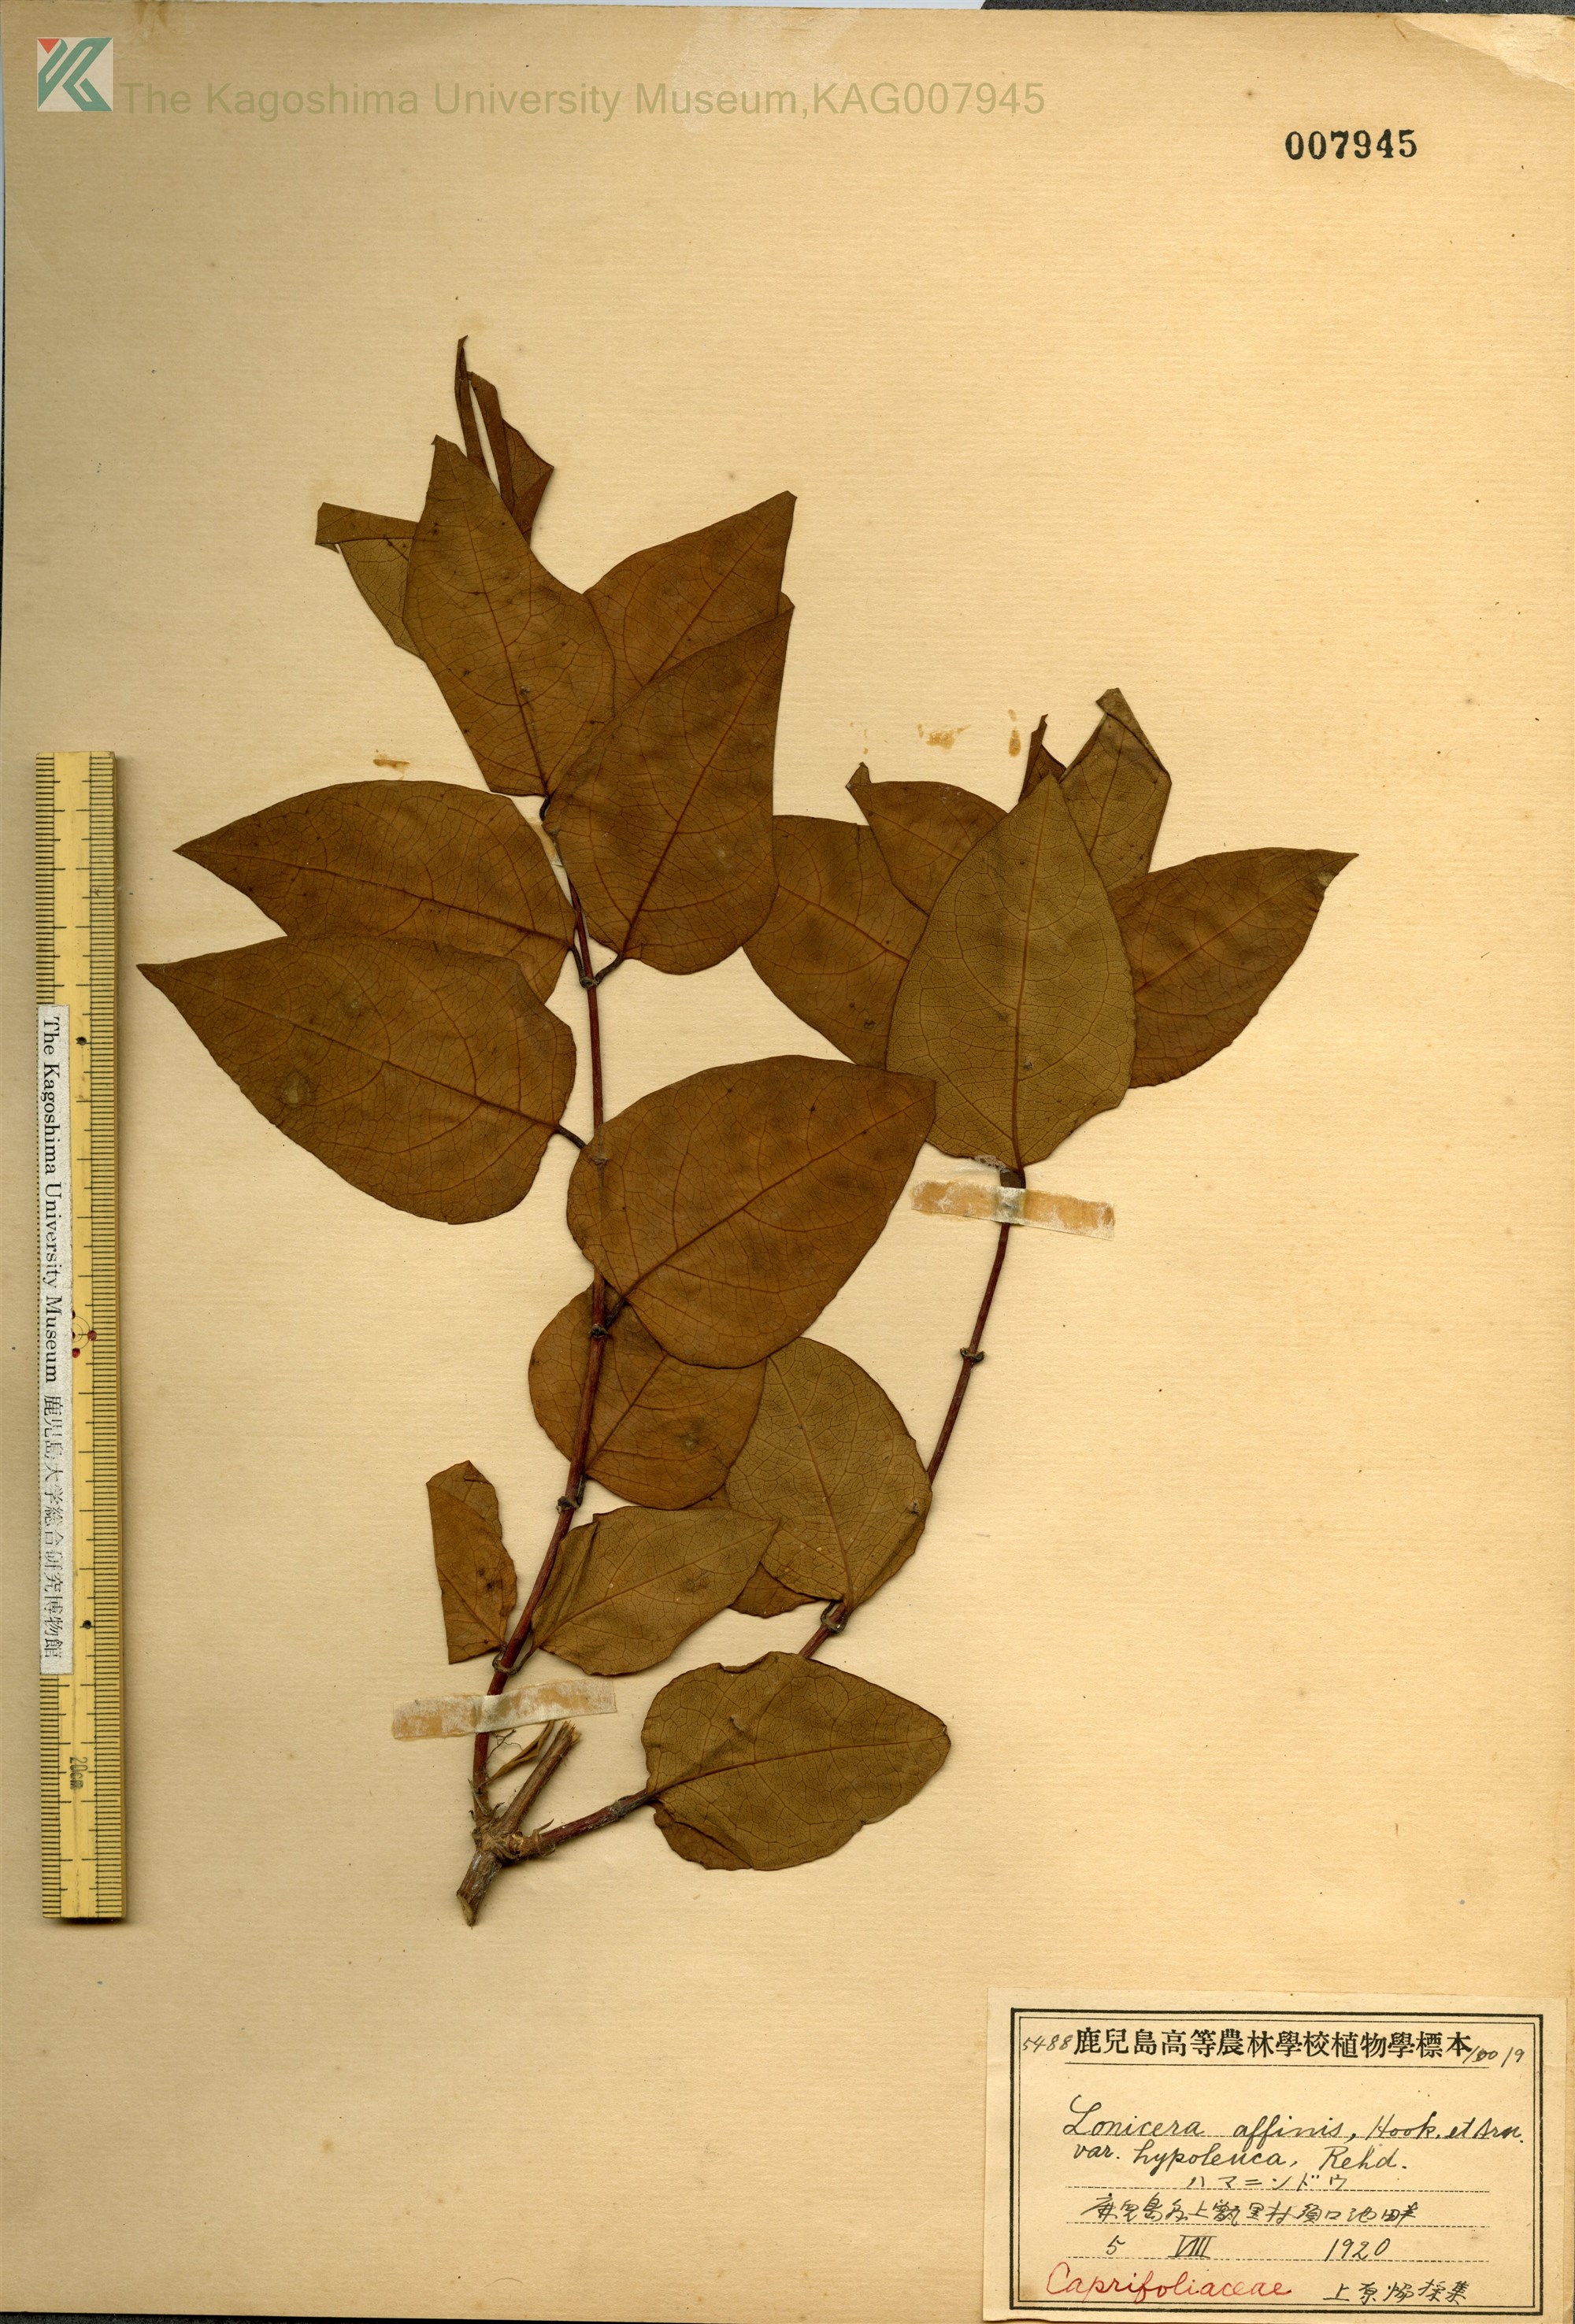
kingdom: Plantae
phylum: Tracheophyta
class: Magnoliopsida
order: Dipsacales
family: Caprifoliaceae
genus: Lonicera
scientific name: Lonicera affinis
